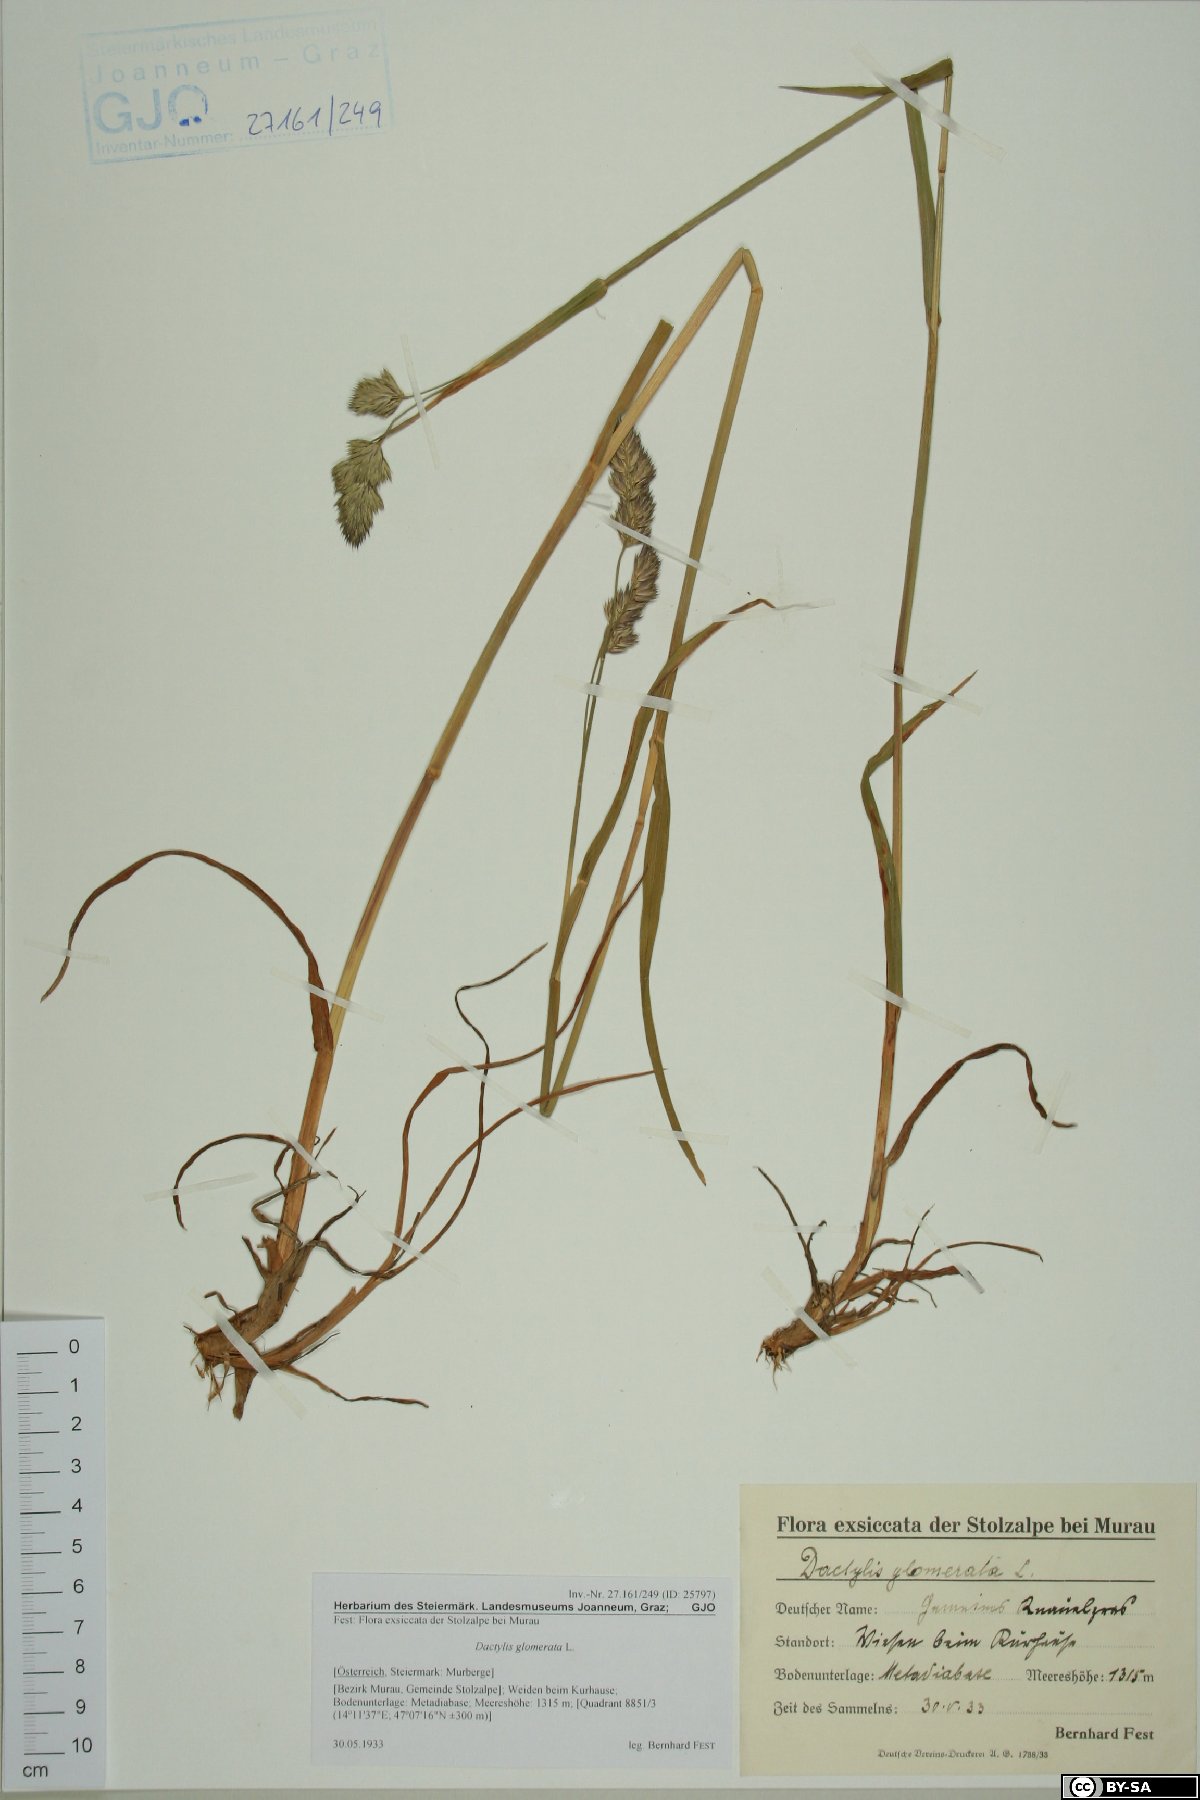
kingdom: Plantae
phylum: Tracheophyta
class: Liliopsida
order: Poales
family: Poaceae
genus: Dactylis
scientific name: Dactylis glomerata
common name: Orchardgrass
